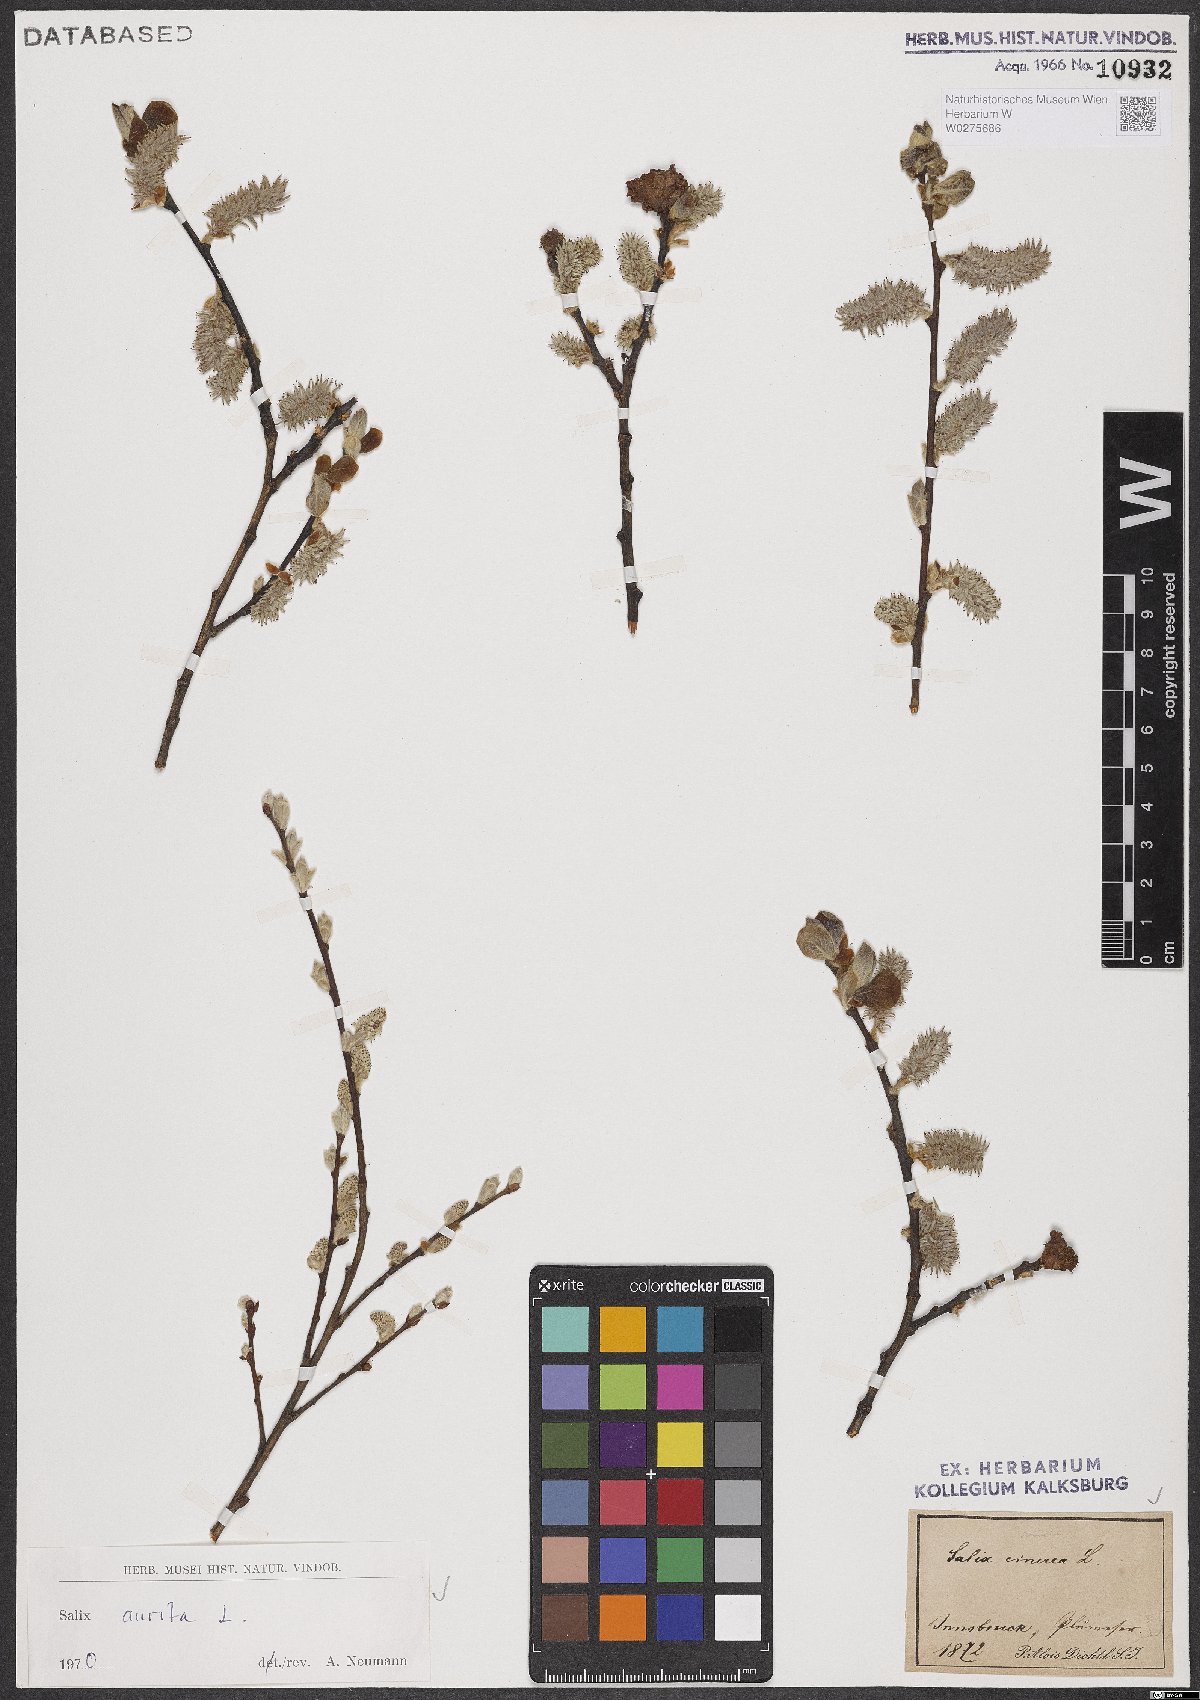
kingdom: Plantae
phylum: Tracheophyta
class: Magnoliopsida
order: Malpighiales
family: Salicaceae
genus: Salix
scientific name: Salix aurita
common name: Eared willow
